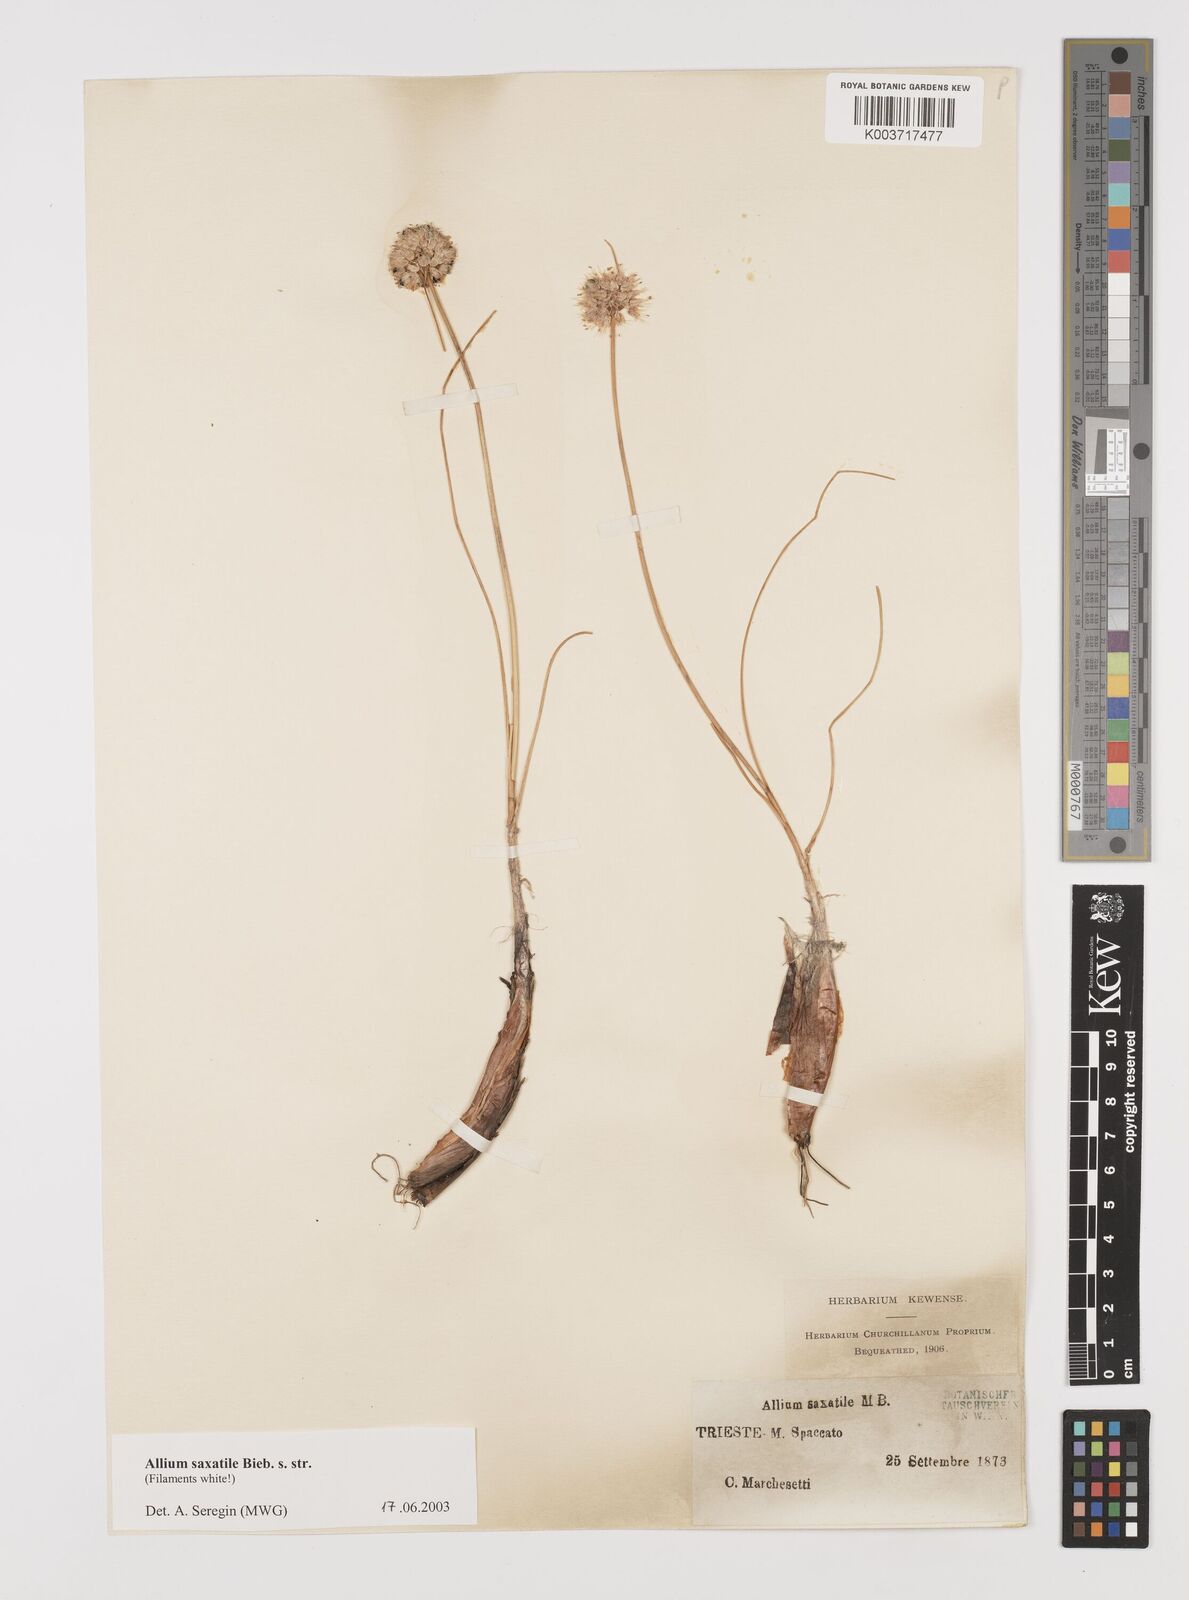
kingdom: Plantae
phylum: Tracheophyta
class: Liliopsida
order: Asparagales
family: Amaryllidaceae
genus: Allium
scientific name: Allium saxatile
